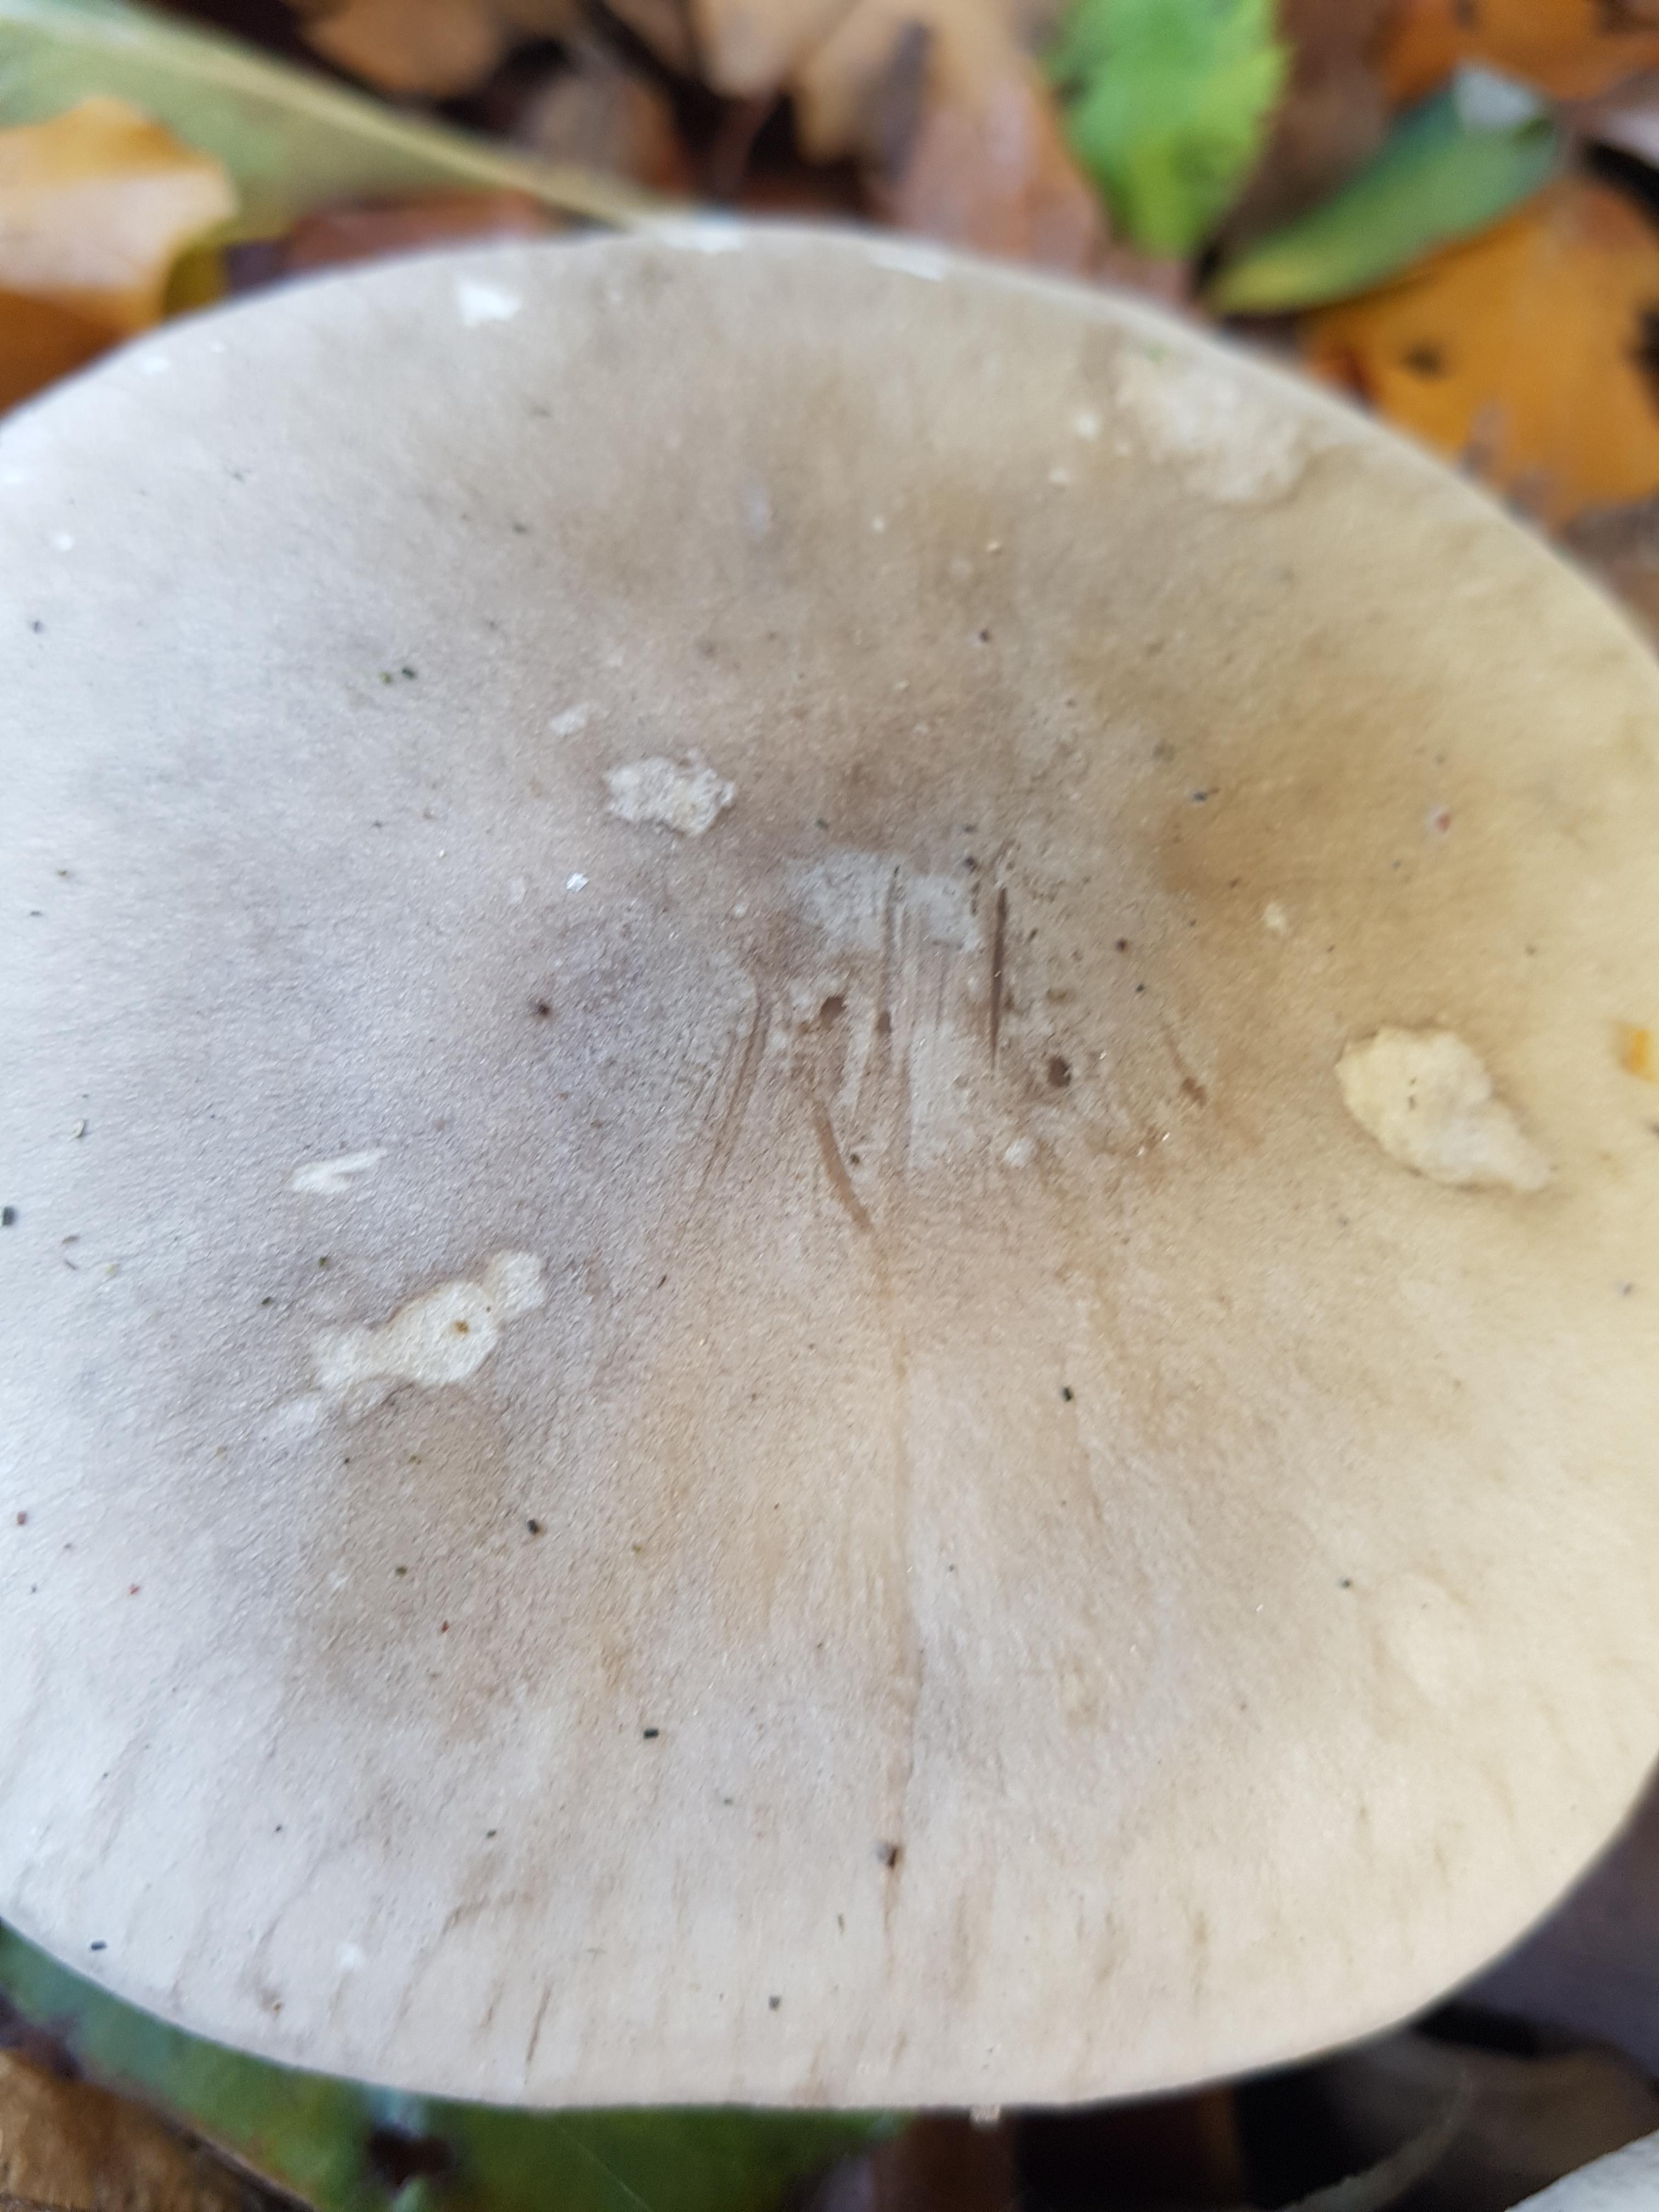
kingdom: Fungi
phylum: Basidiomycota
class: Agaricomycetes
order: Agaricales
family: Tricholomataceae
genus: Clitocybe
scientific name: Clitocybe nebularis
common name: tåge-tragthat
